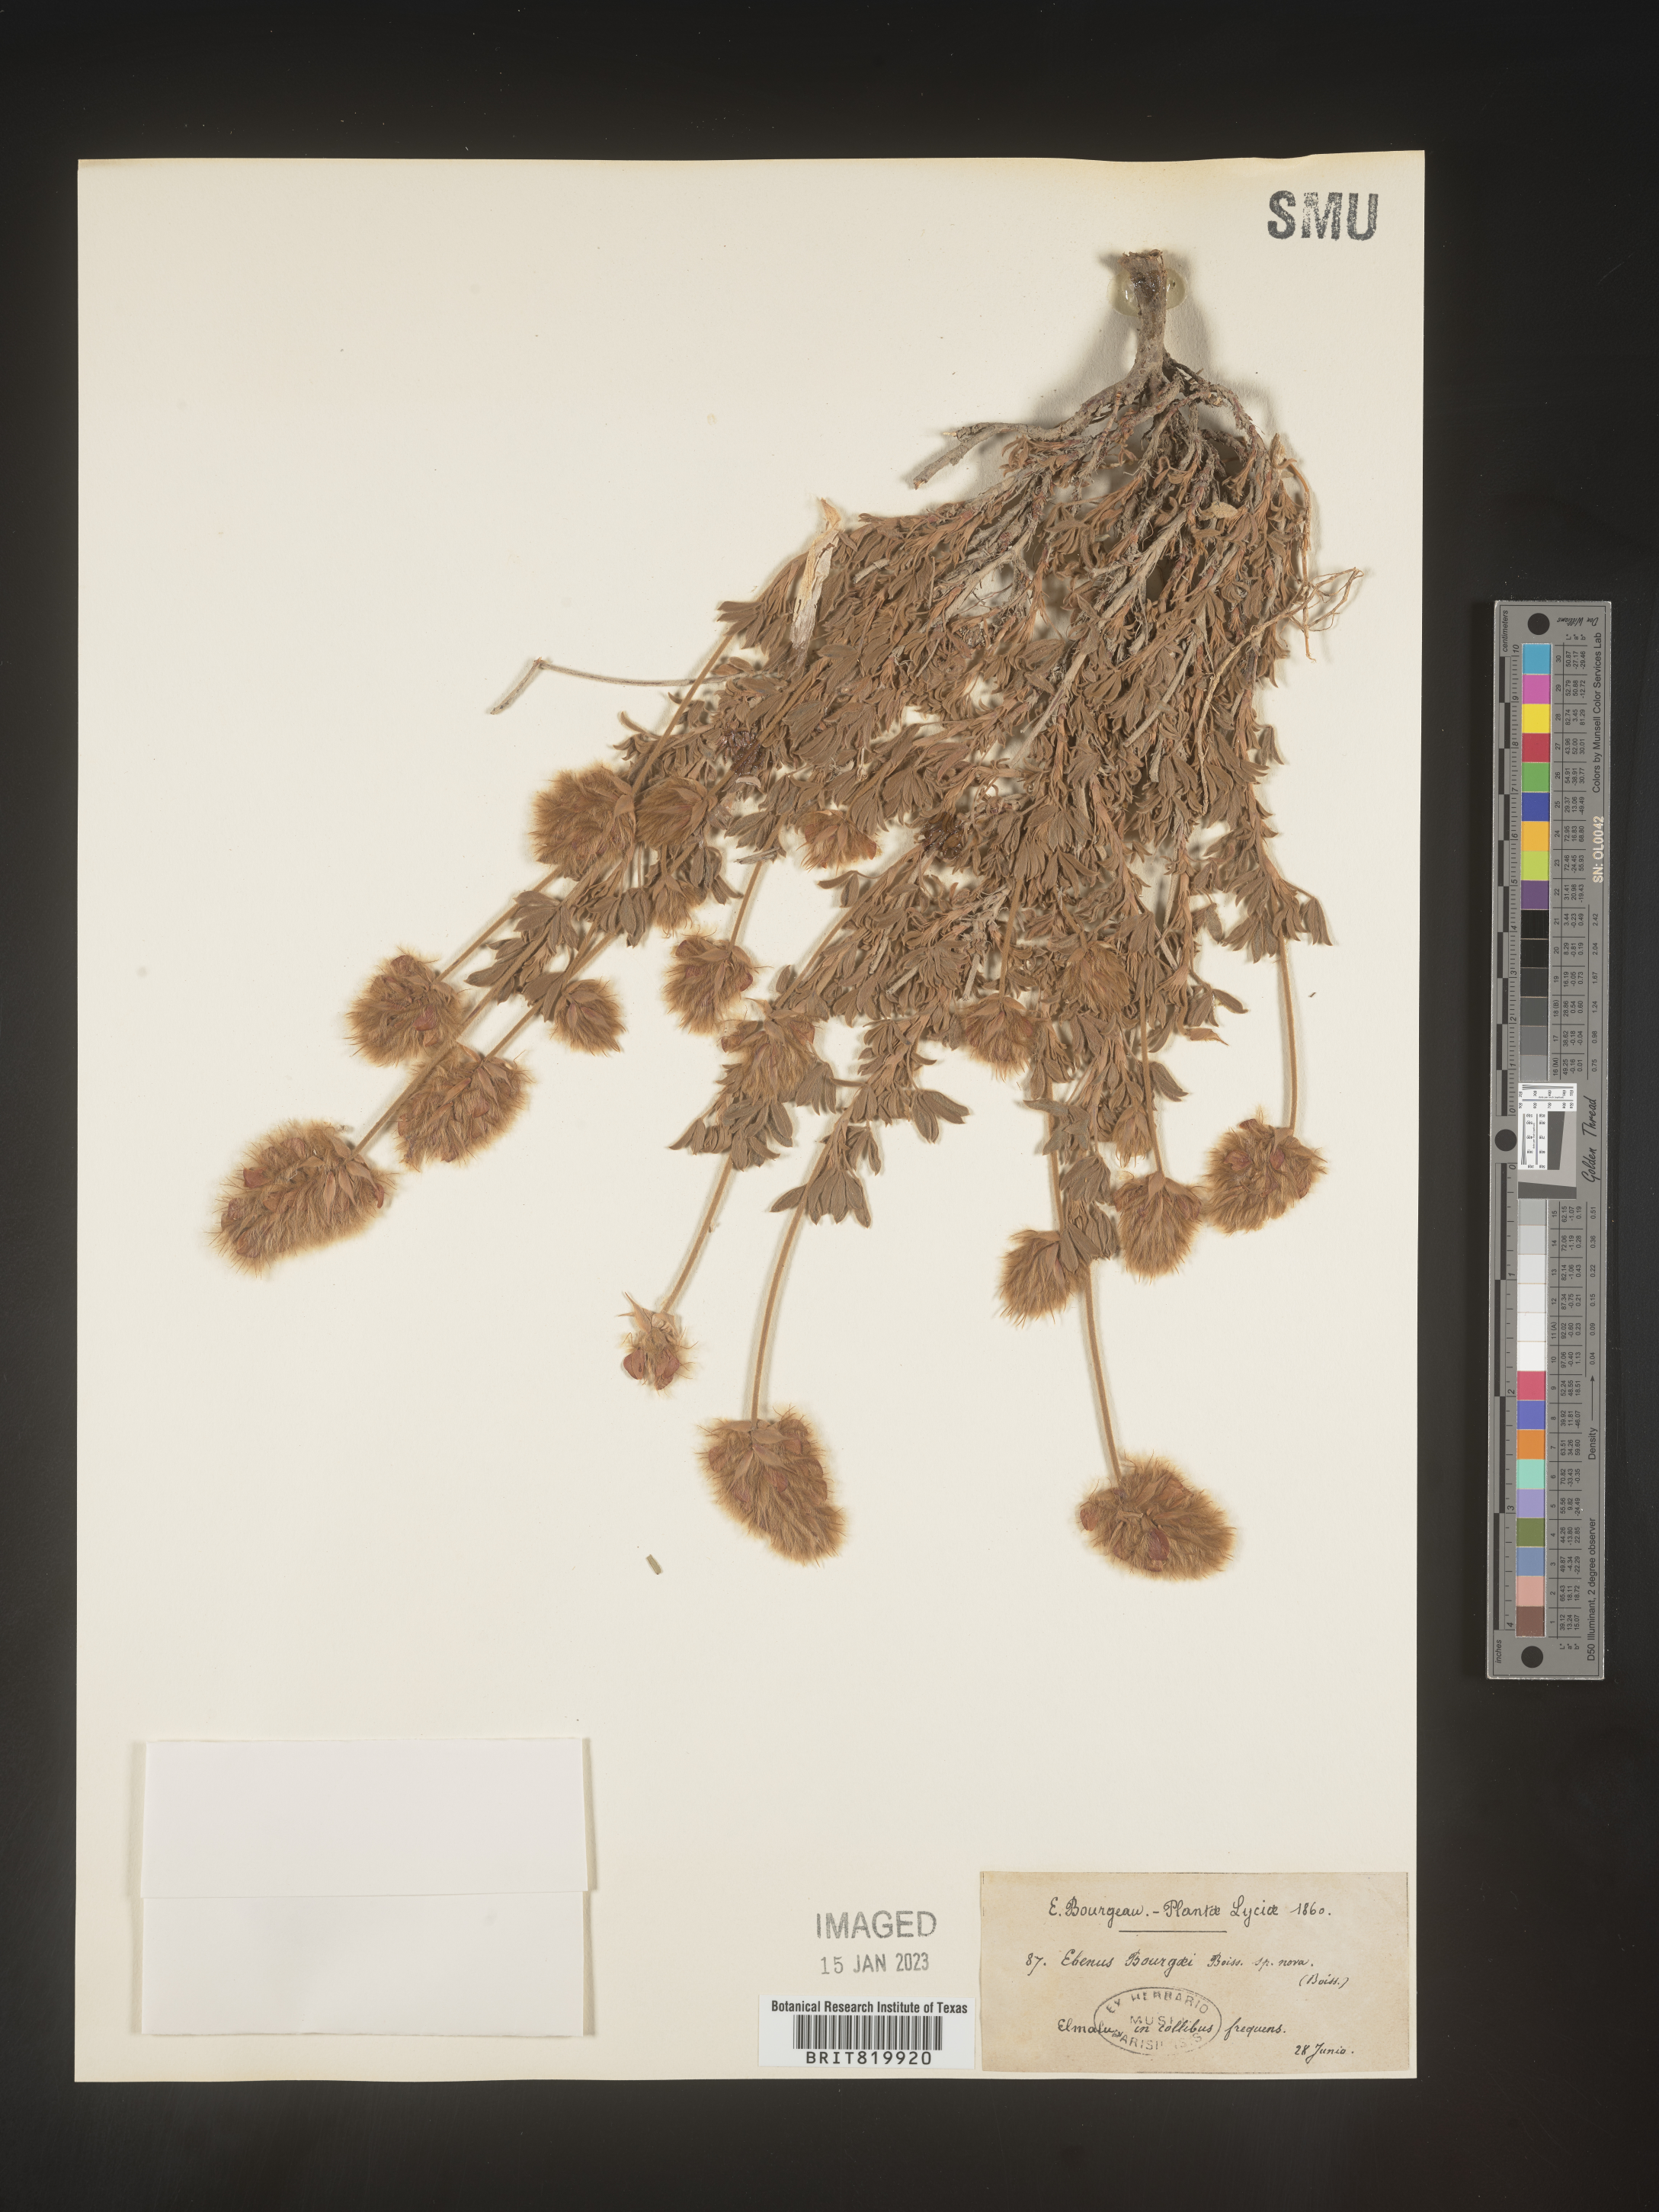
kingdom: Plantae
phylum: Tracheophyta
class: Magnoliopsida
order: Fabales
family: Fabaceae
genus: Ebenus
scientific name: Ebenus
